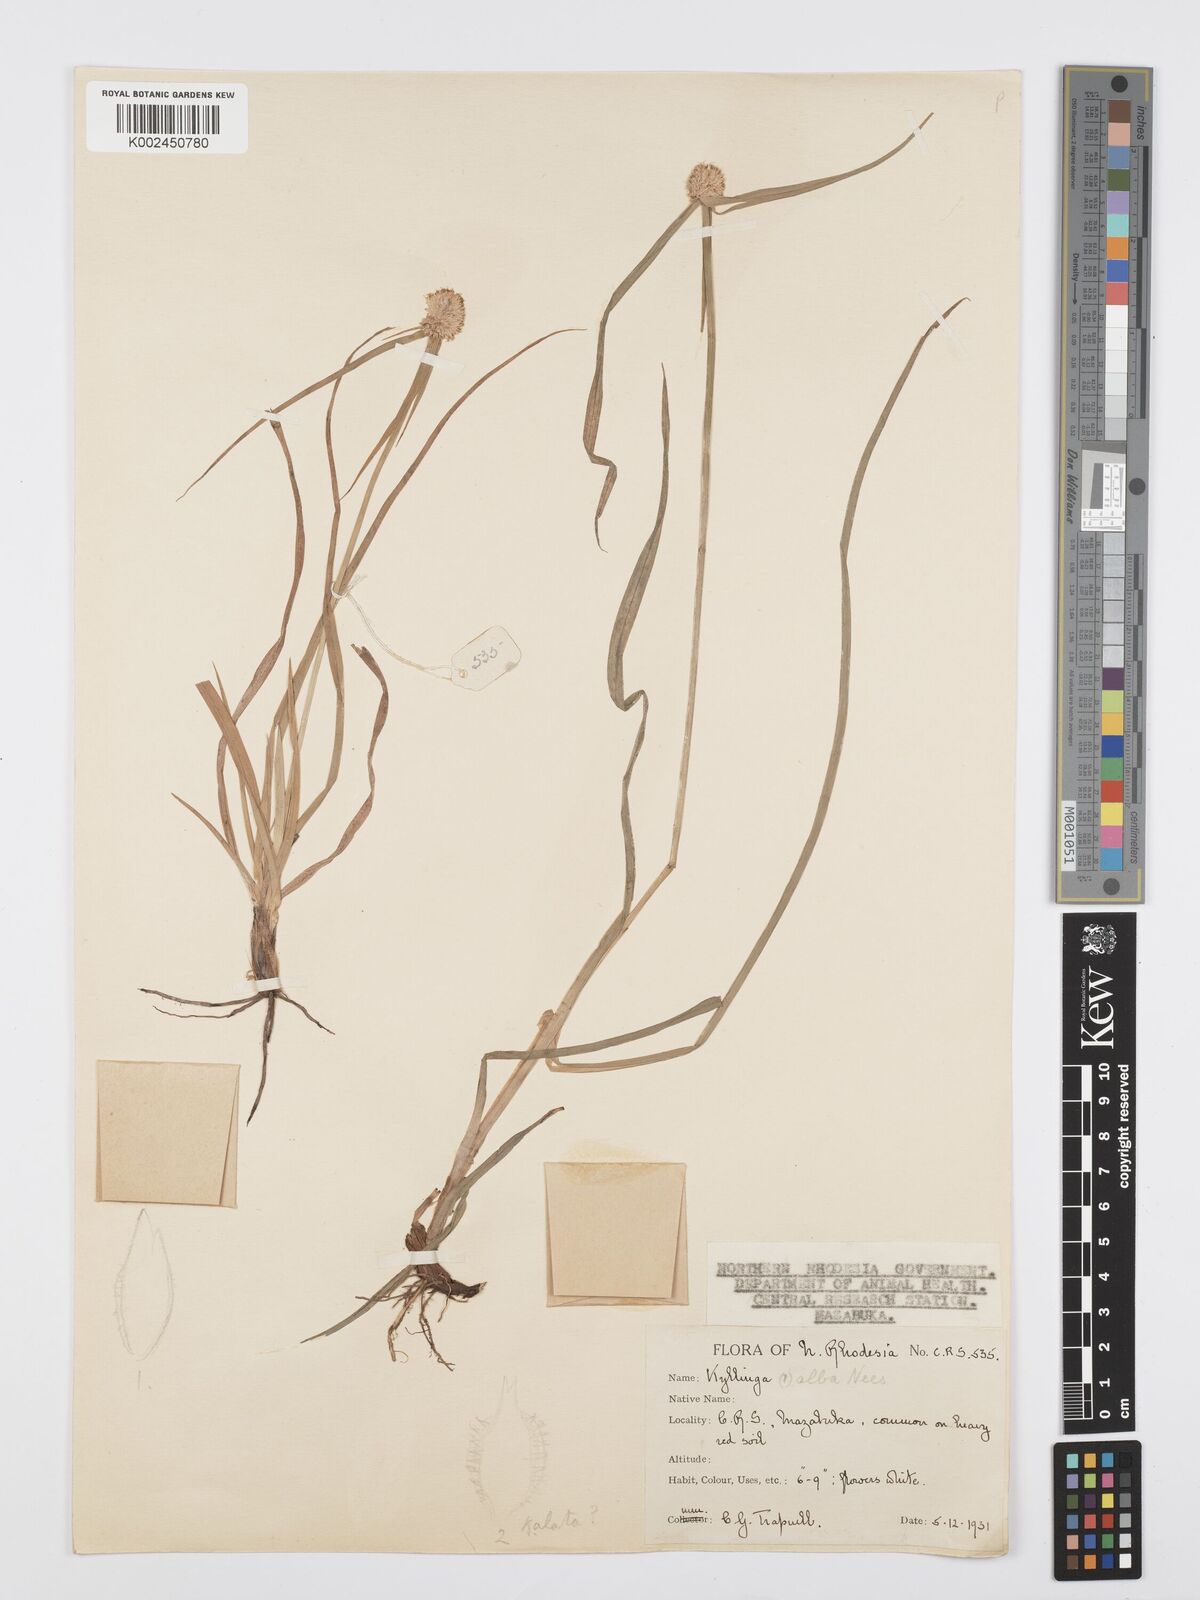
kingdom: Plantae
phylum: Tracheophyta
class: Liliopsida
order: Poales
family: Cyperaceae
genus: Cyperus
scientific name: Cyperus rukwanus
